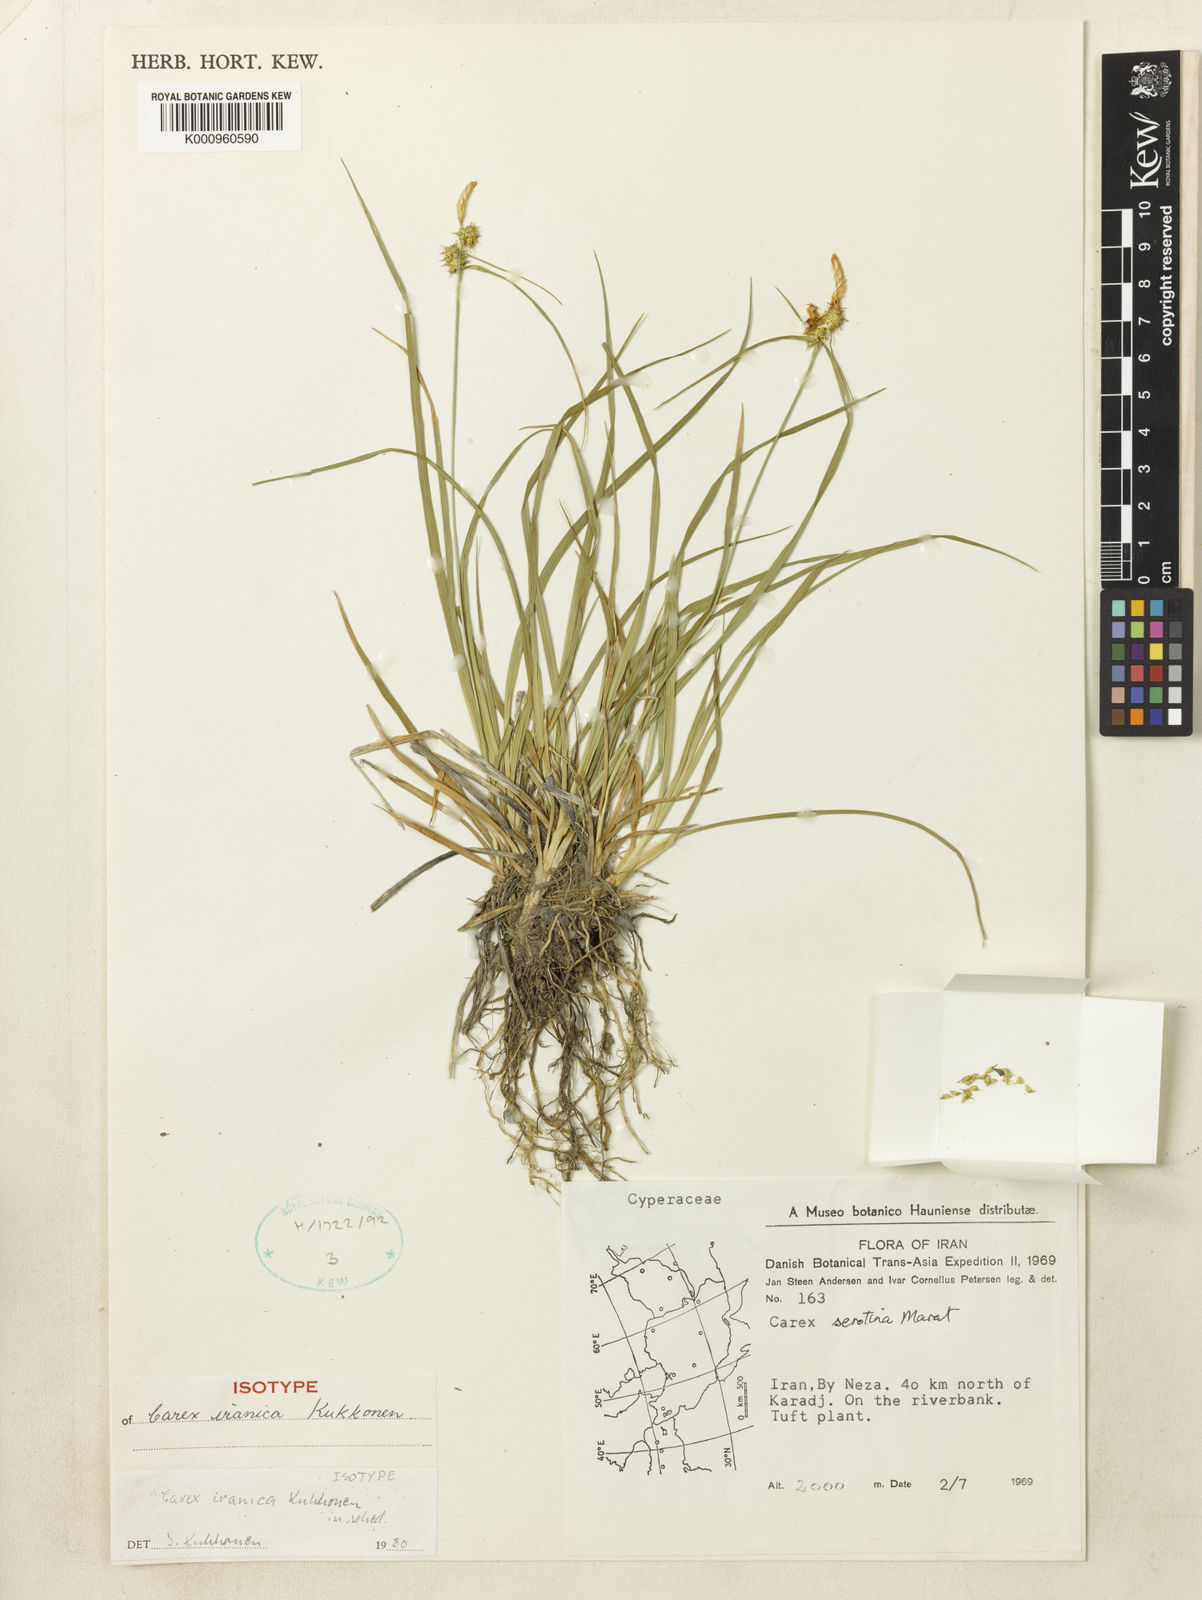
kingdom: Plantae
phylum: Tracheophyta
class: Liliopsida
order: Poales
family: Cyperaceae
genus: Carex
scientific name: Carex
